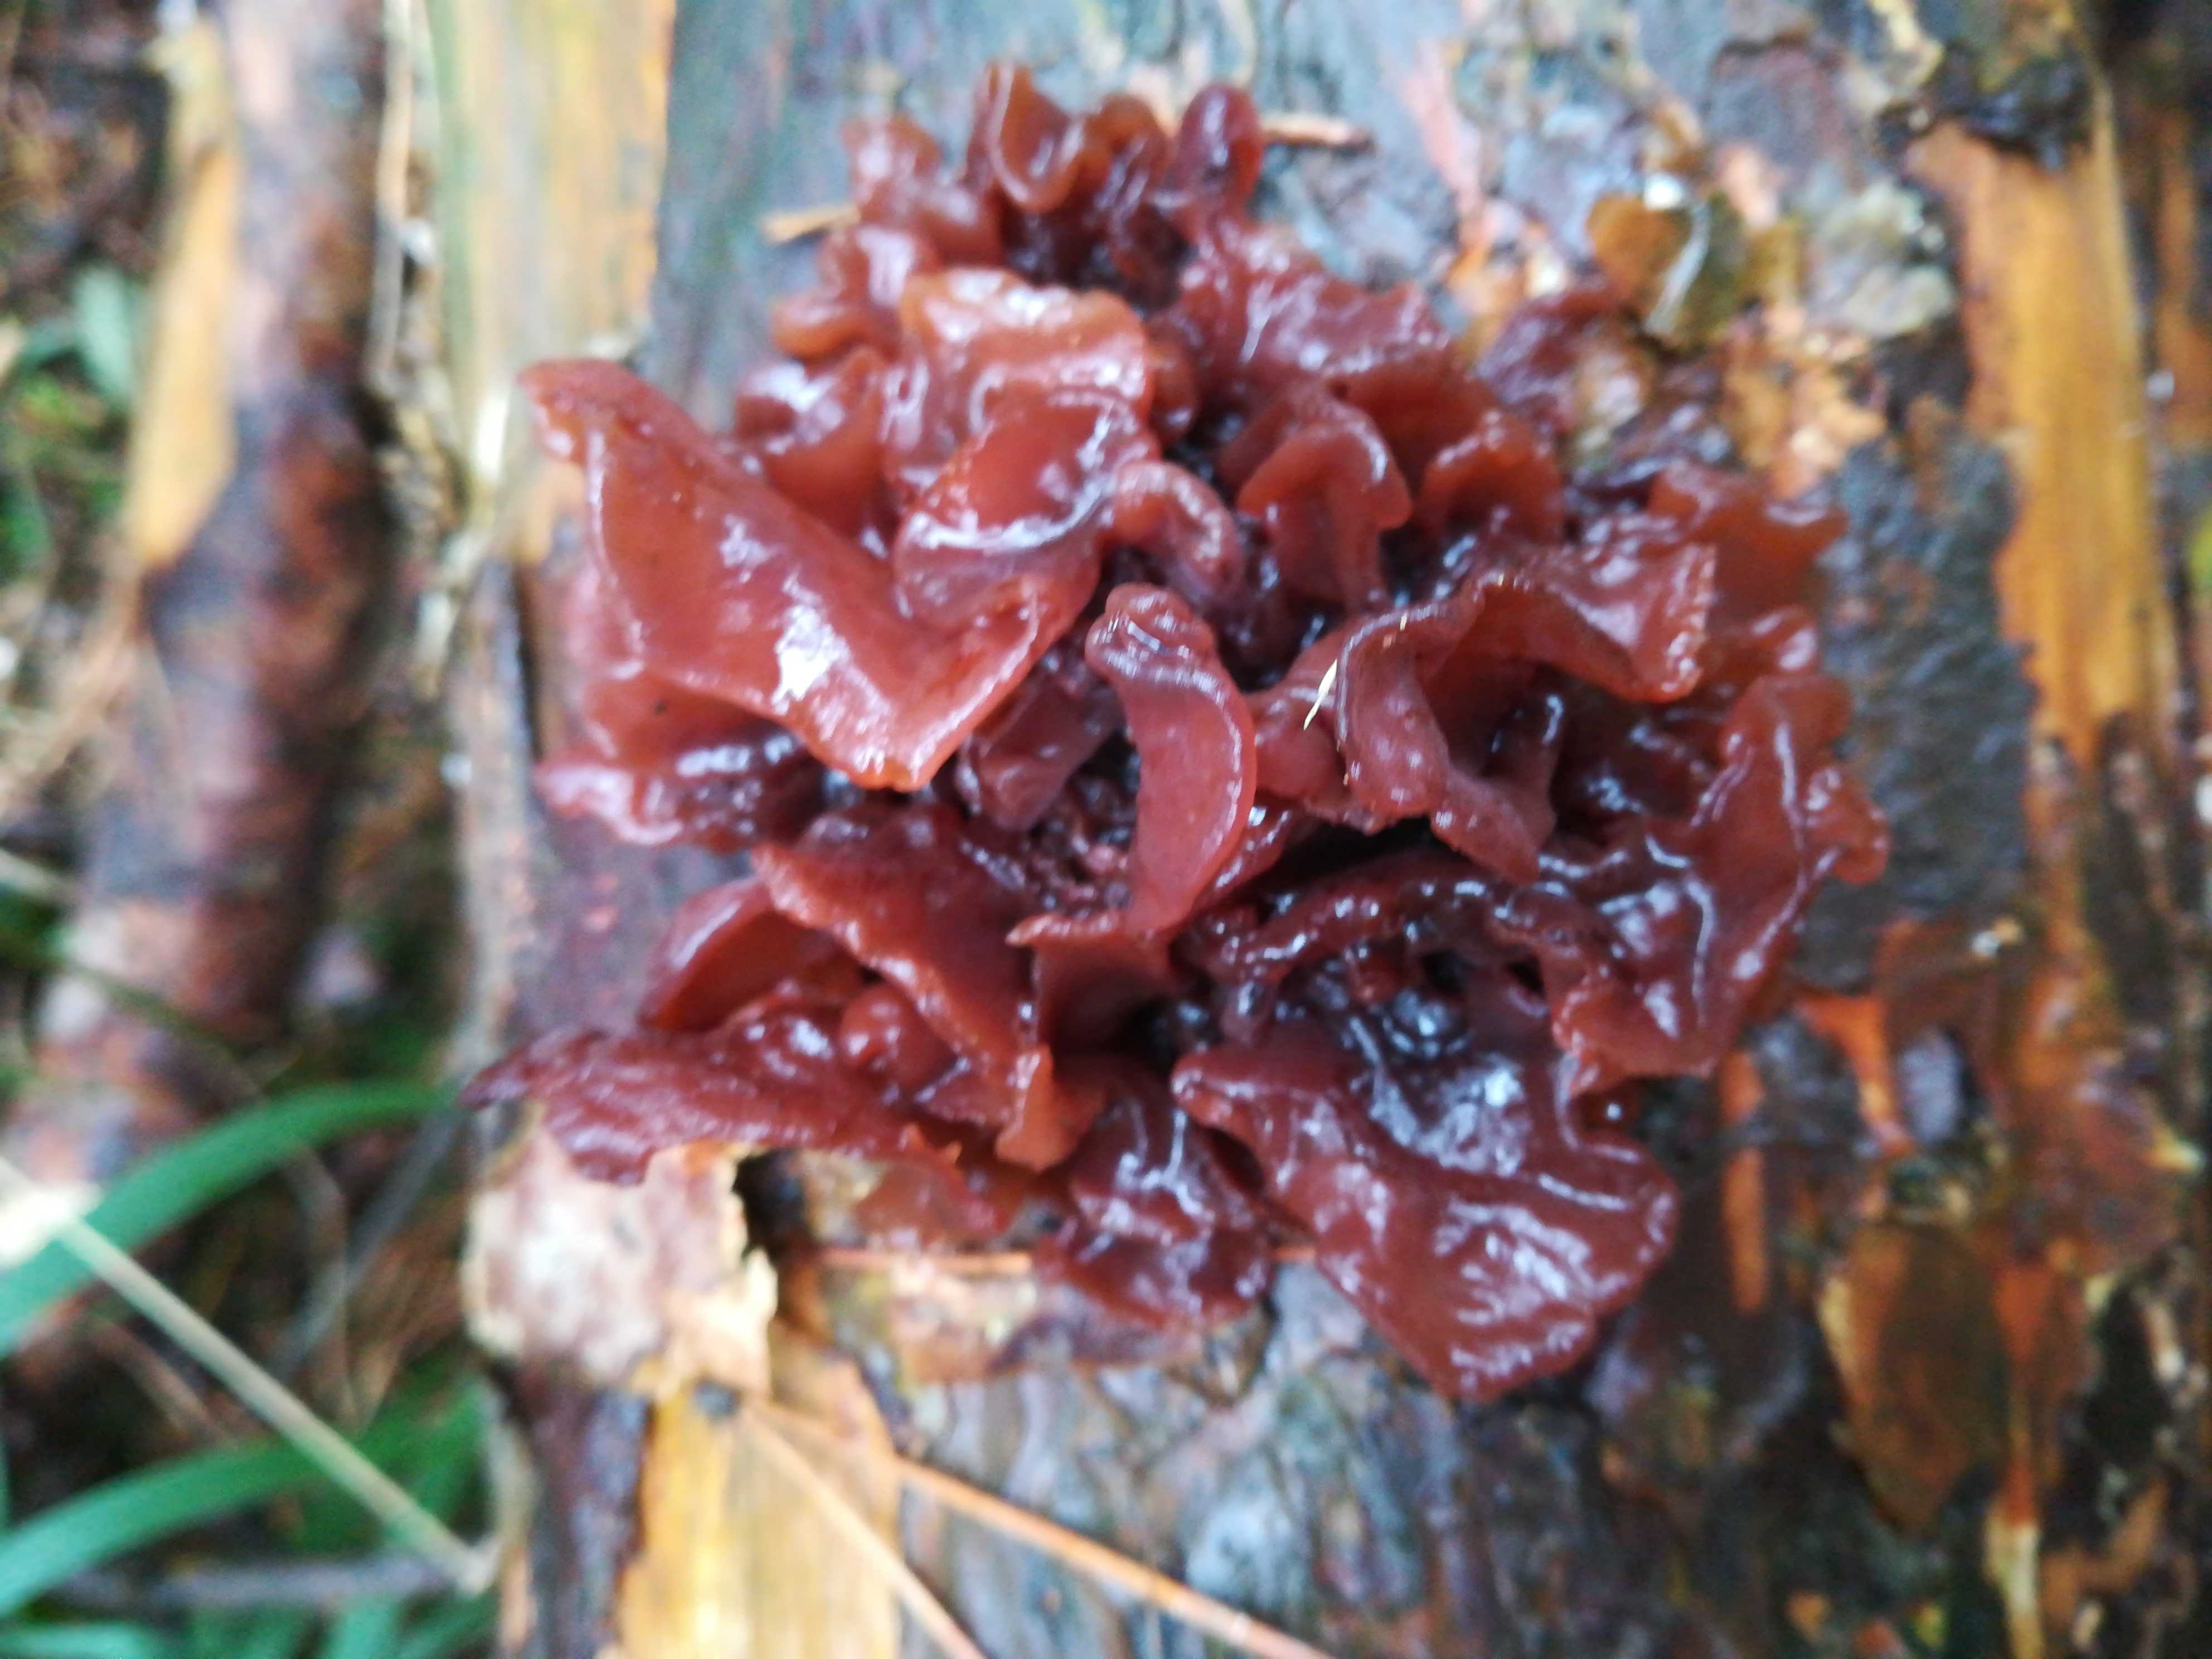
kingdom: Fungi
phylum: Basidiomycota
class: Tremellomycetes
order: Tremellales
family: Tremellaceae
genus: Phaeotremella
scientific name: Phaeotremella foliacea
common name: brun bævresvamp
